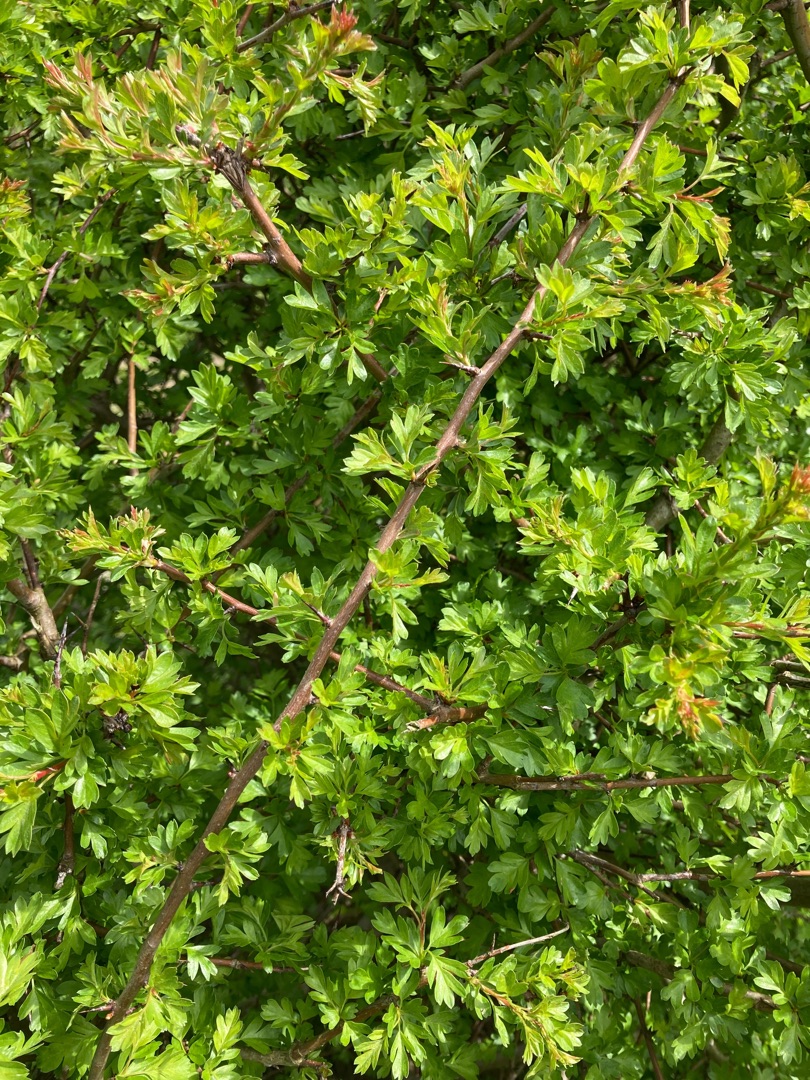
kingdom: Plantae
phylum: Tracheophyta
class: Magnoliopsida
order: Rosales
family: Rosaceae
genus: Crataegus
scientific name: Crataegus monogyna
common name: Engriflet hvidtjørn
